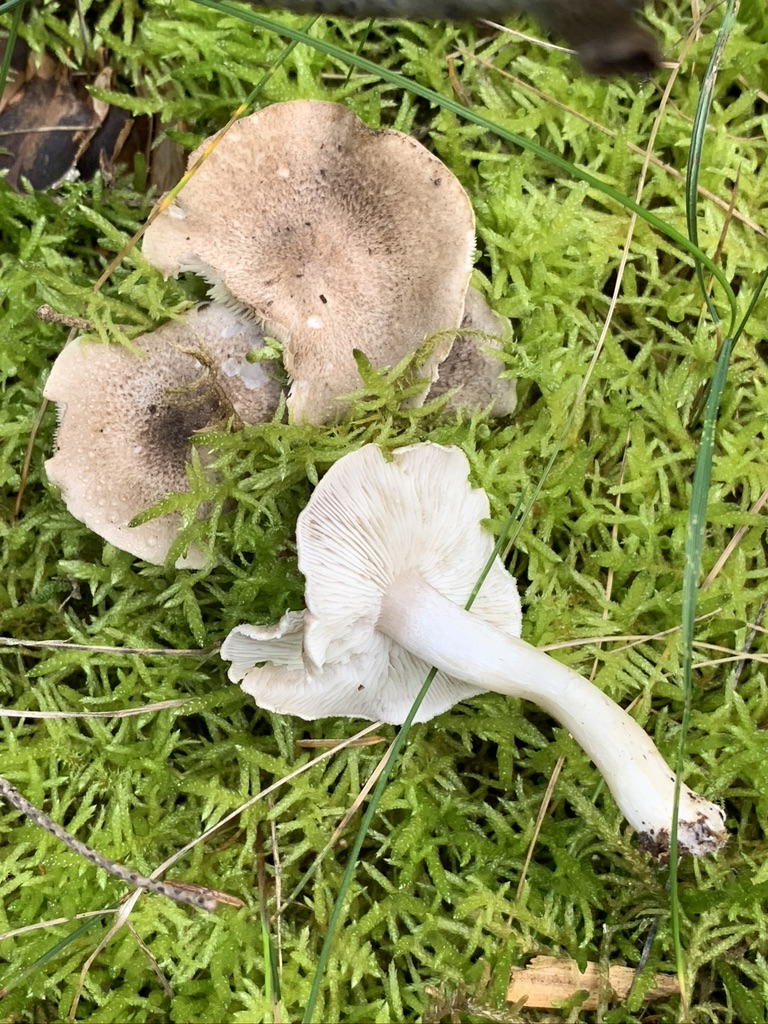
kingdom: Fungi
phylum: Basidiomycota
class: Agaricomycetes
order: Agaricales
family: Tricholomataceae
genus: Tricholoma
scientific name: Tricholoma terreum
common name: jordfarvet ridderhat
